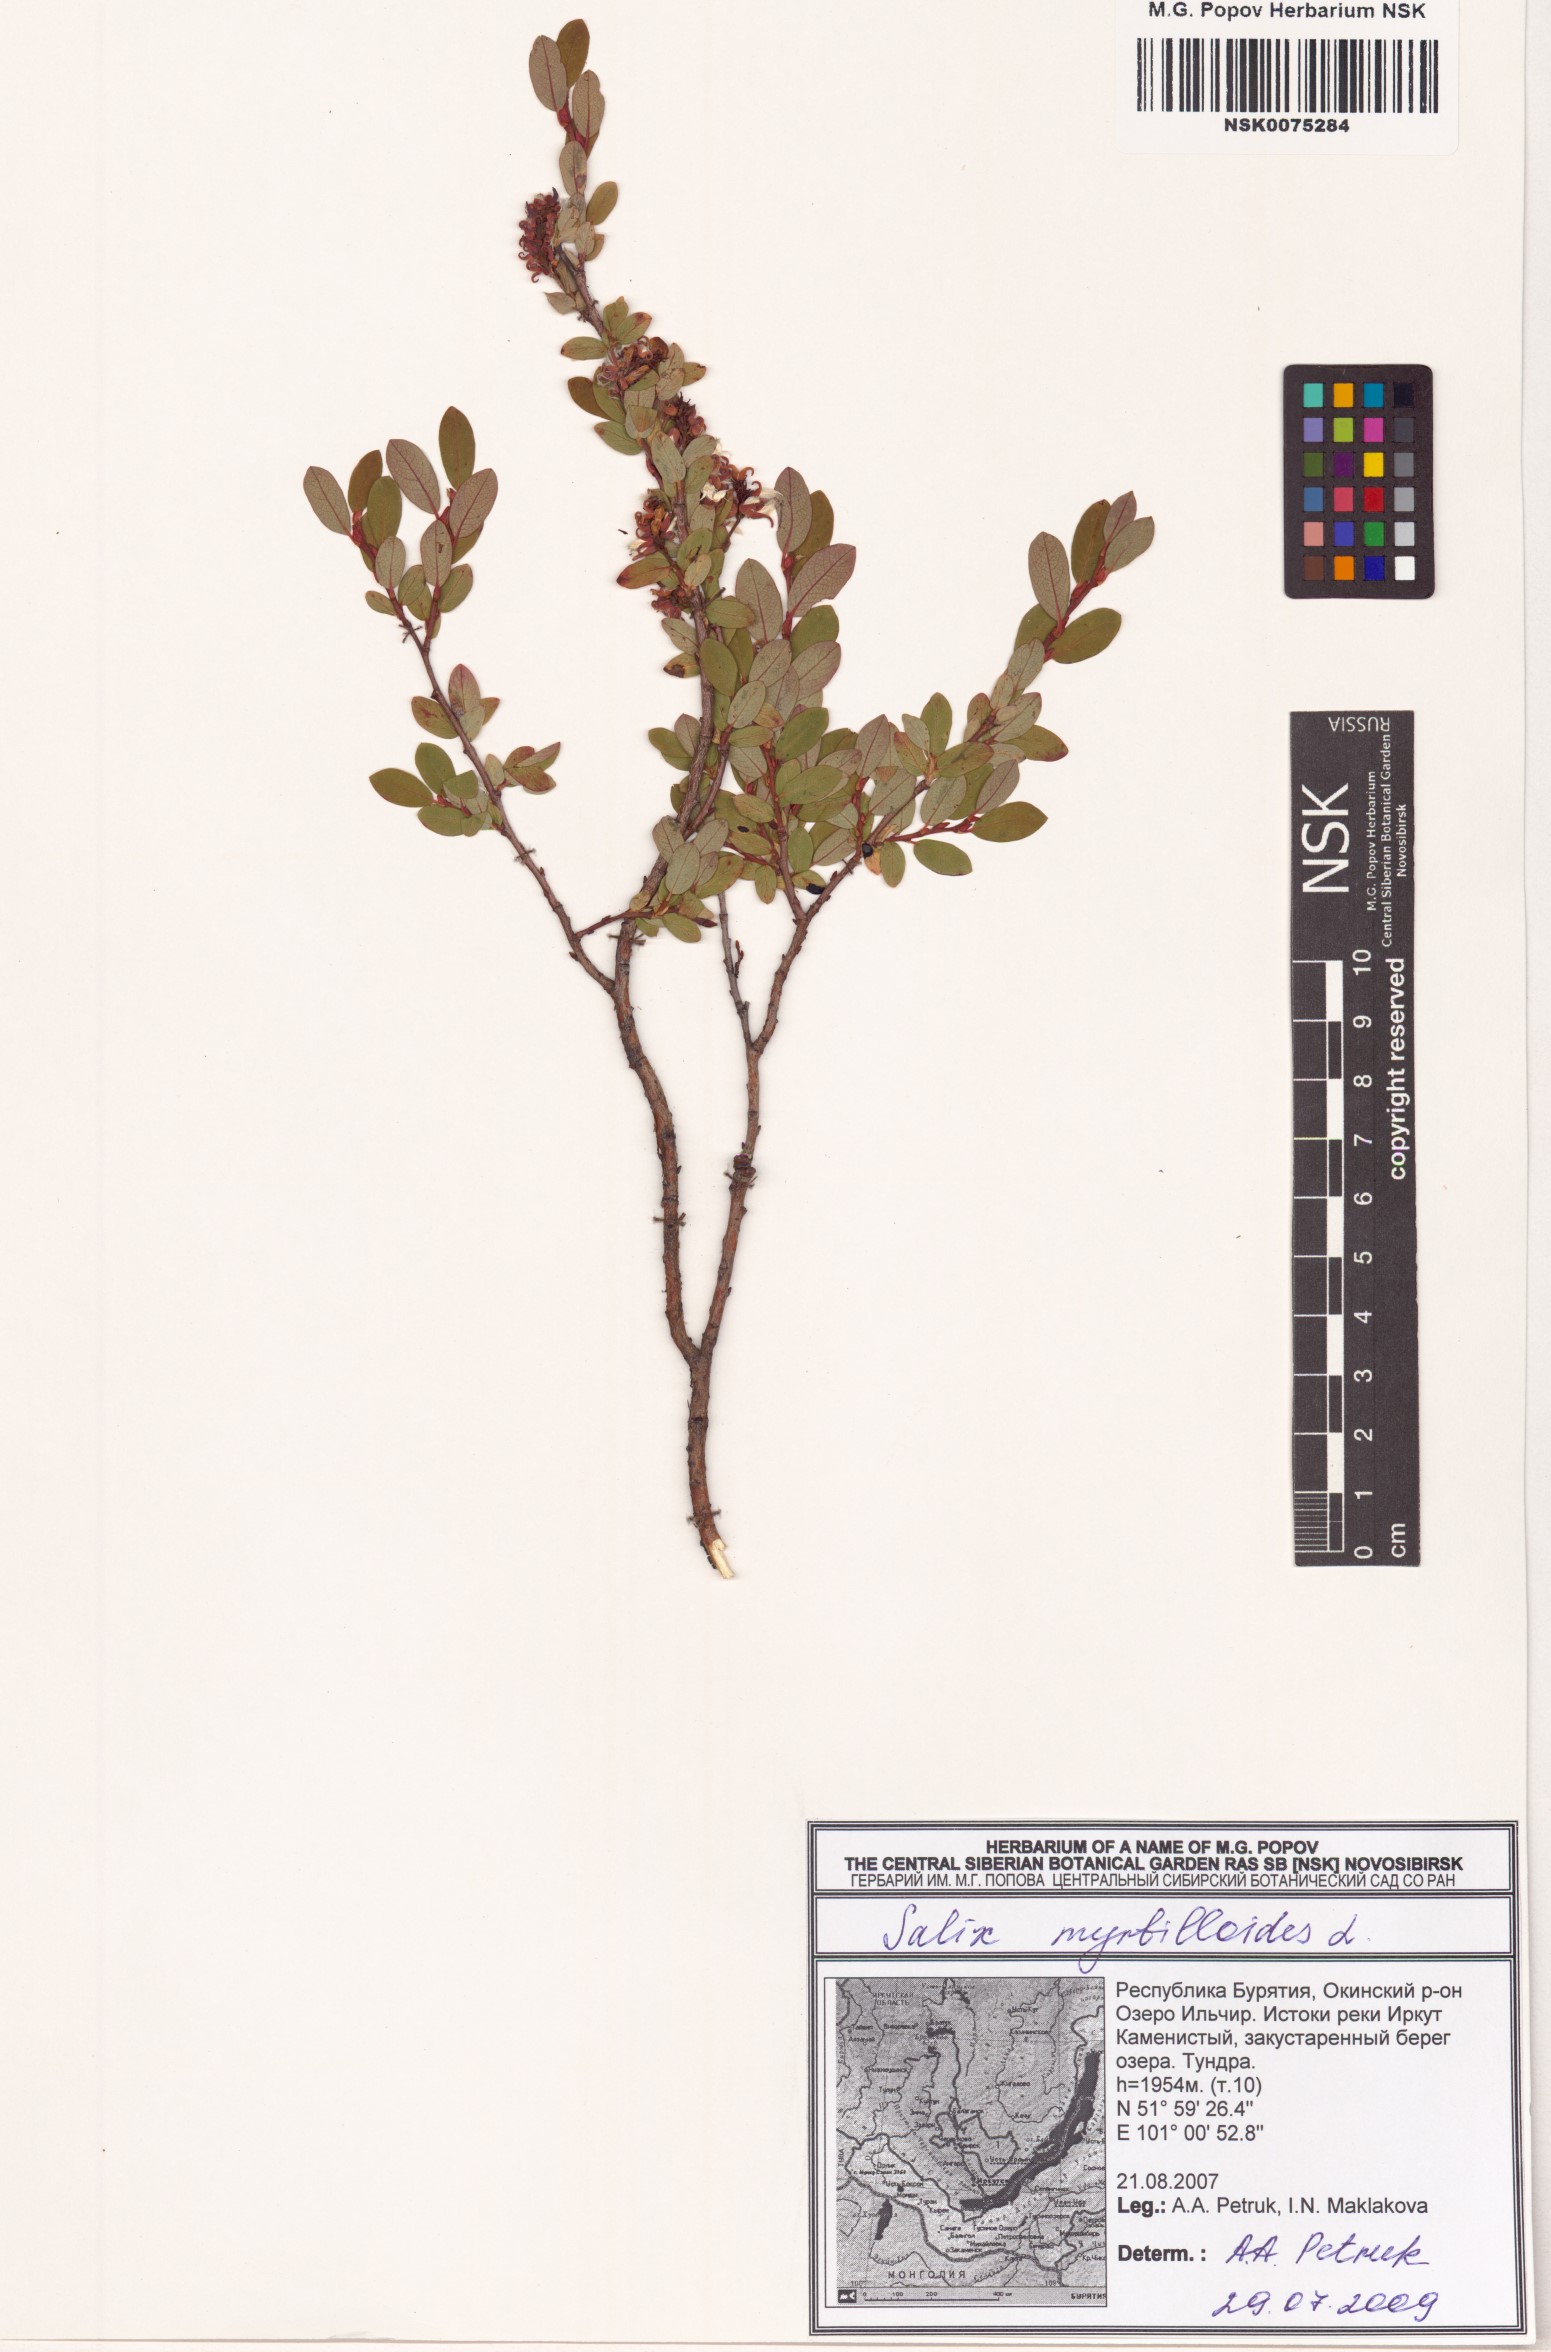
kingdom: Plantae
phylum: Tracheophyta
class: Magnoliopsida
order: Malpighiales
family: Salicaceae
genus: Salix
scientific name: Salix myrtilloides
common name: Myrtle-leaved willow
